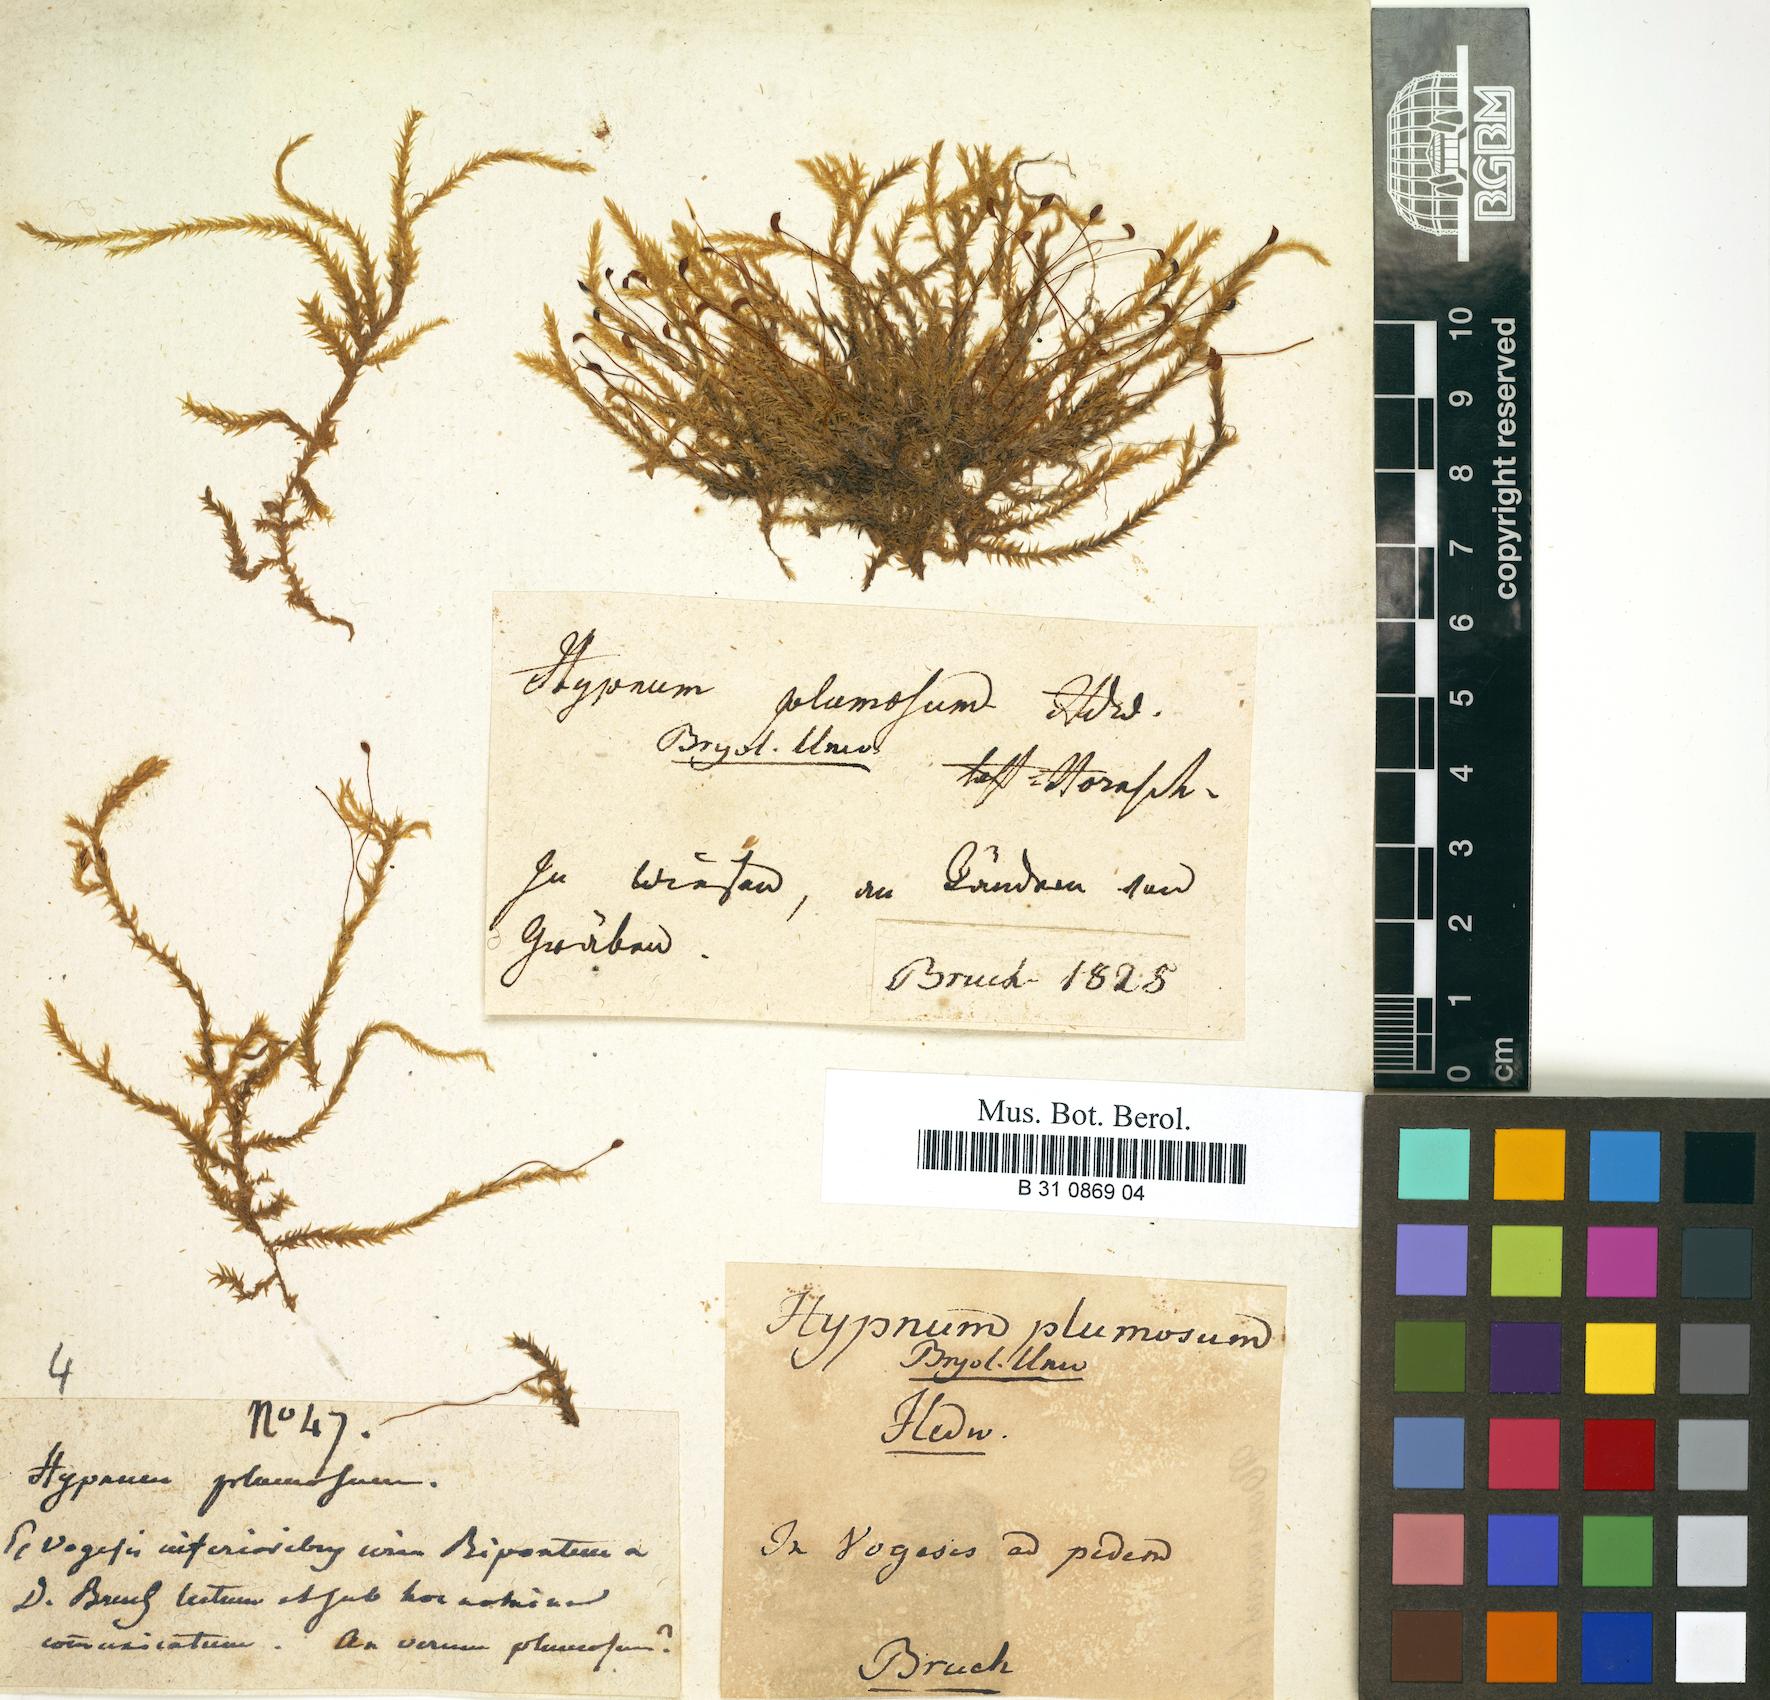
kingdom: Plantae
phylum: Bryophyta
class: Bryopsida
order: Hypnales
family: Brachytheciaceae
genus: Sciuro-hypnum
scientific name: Sciuro-hypnum plumosum
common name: Rusty feather-moss
